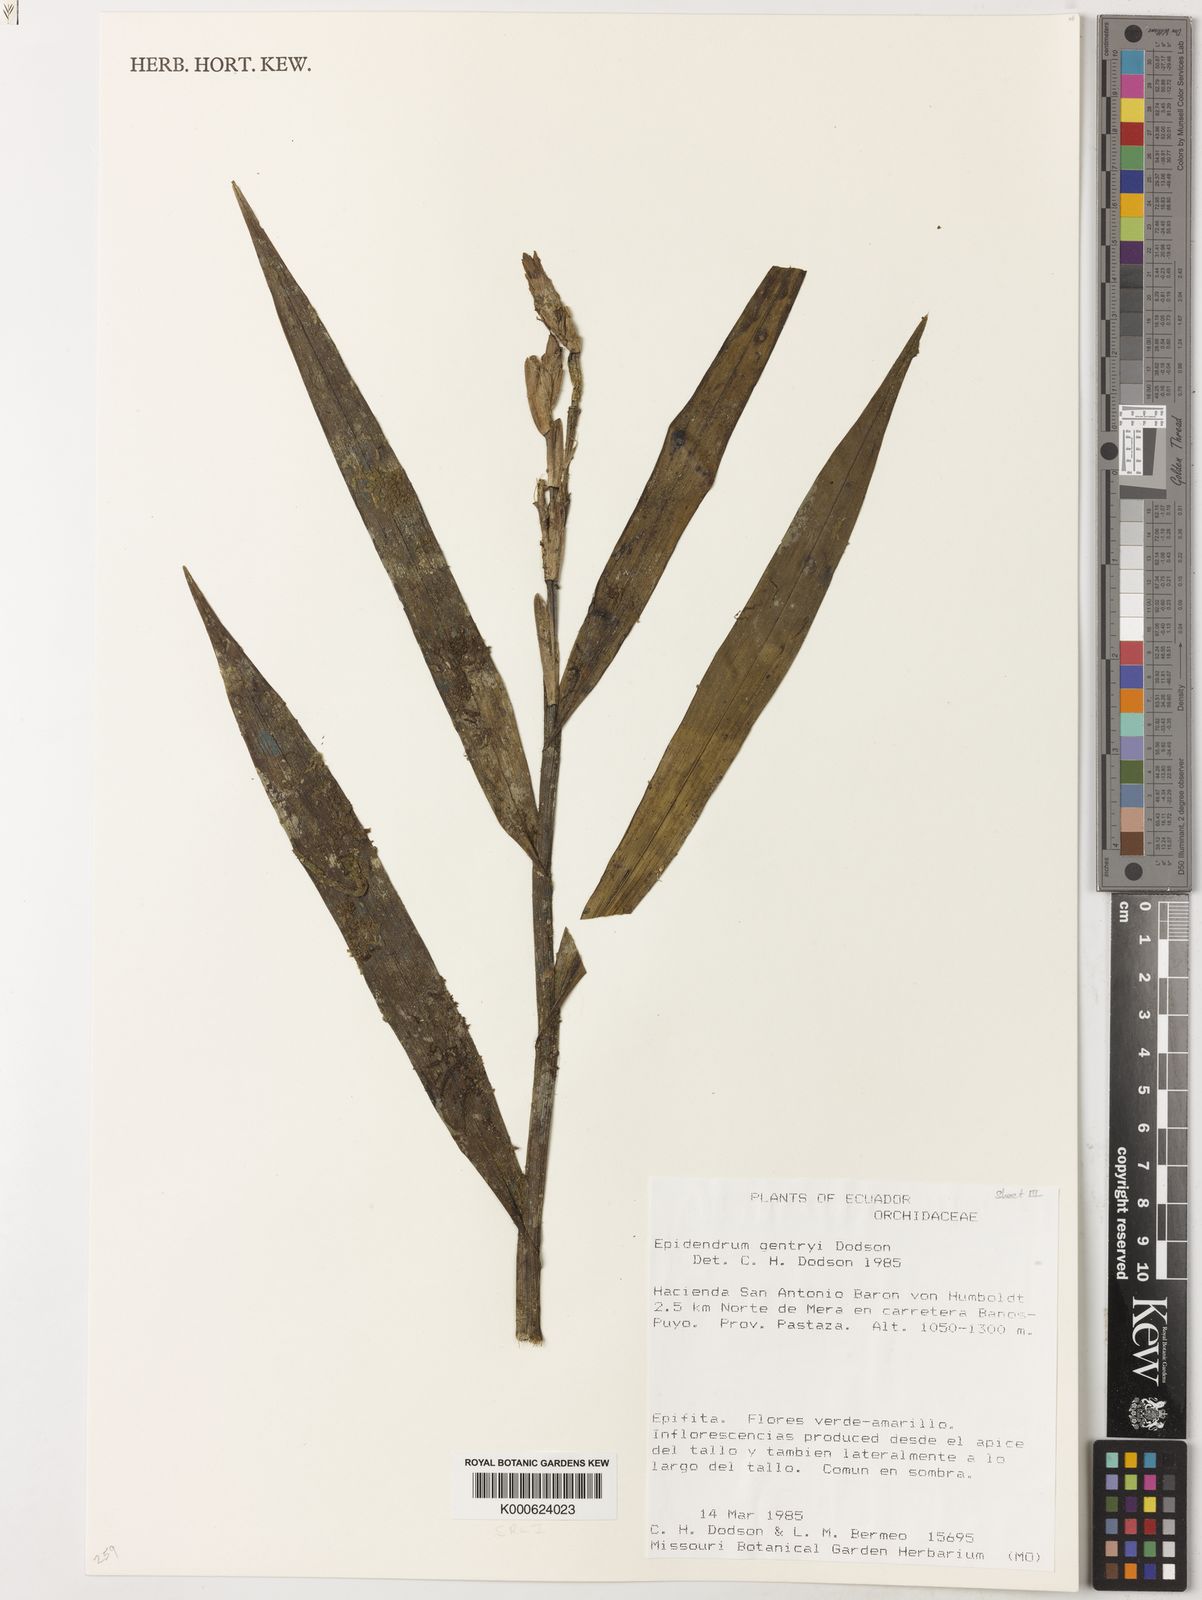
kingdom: Plantae
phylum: Tracheophyta
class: Liliopsida
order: Asparagales
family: Orchidaceae
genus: Epidendrum
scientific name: Epidendrum gentryi
